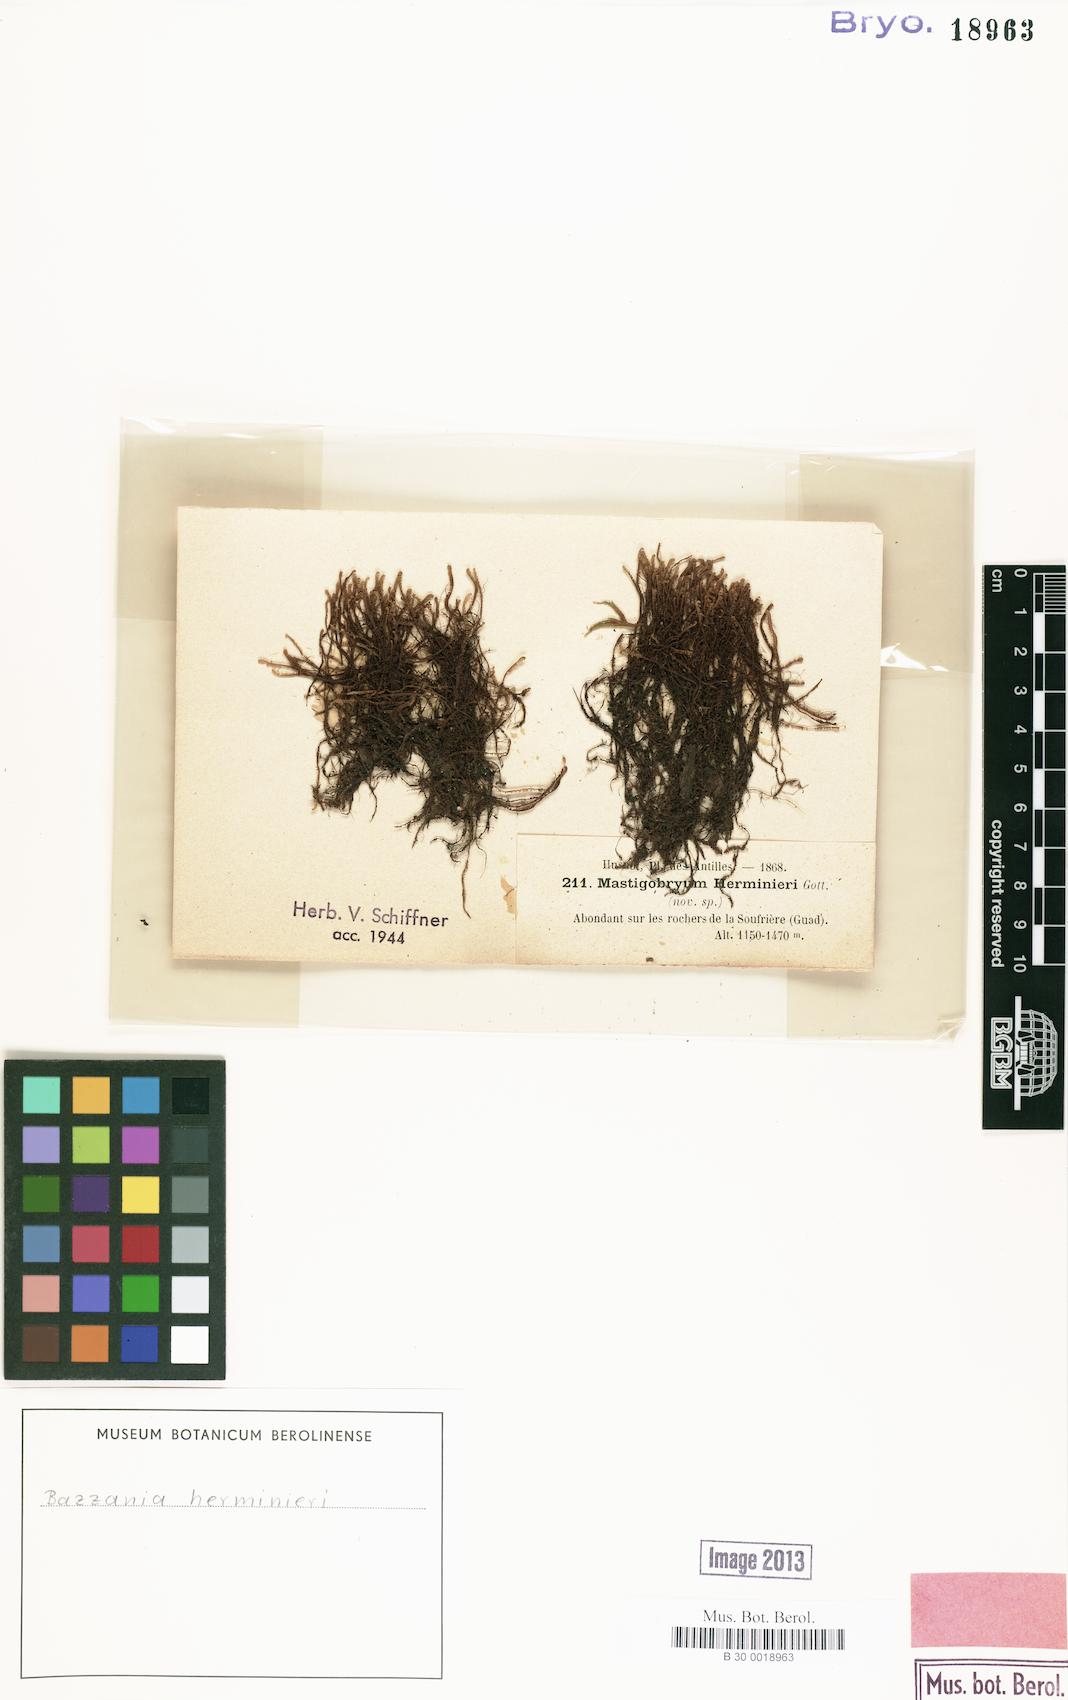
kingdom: Plantae
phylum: Marchantiophyta
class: Jungermanniopsida
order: Jungermanniales
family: Lepidoziaceae
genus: Bazzania
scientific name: Bazzania herminieri
